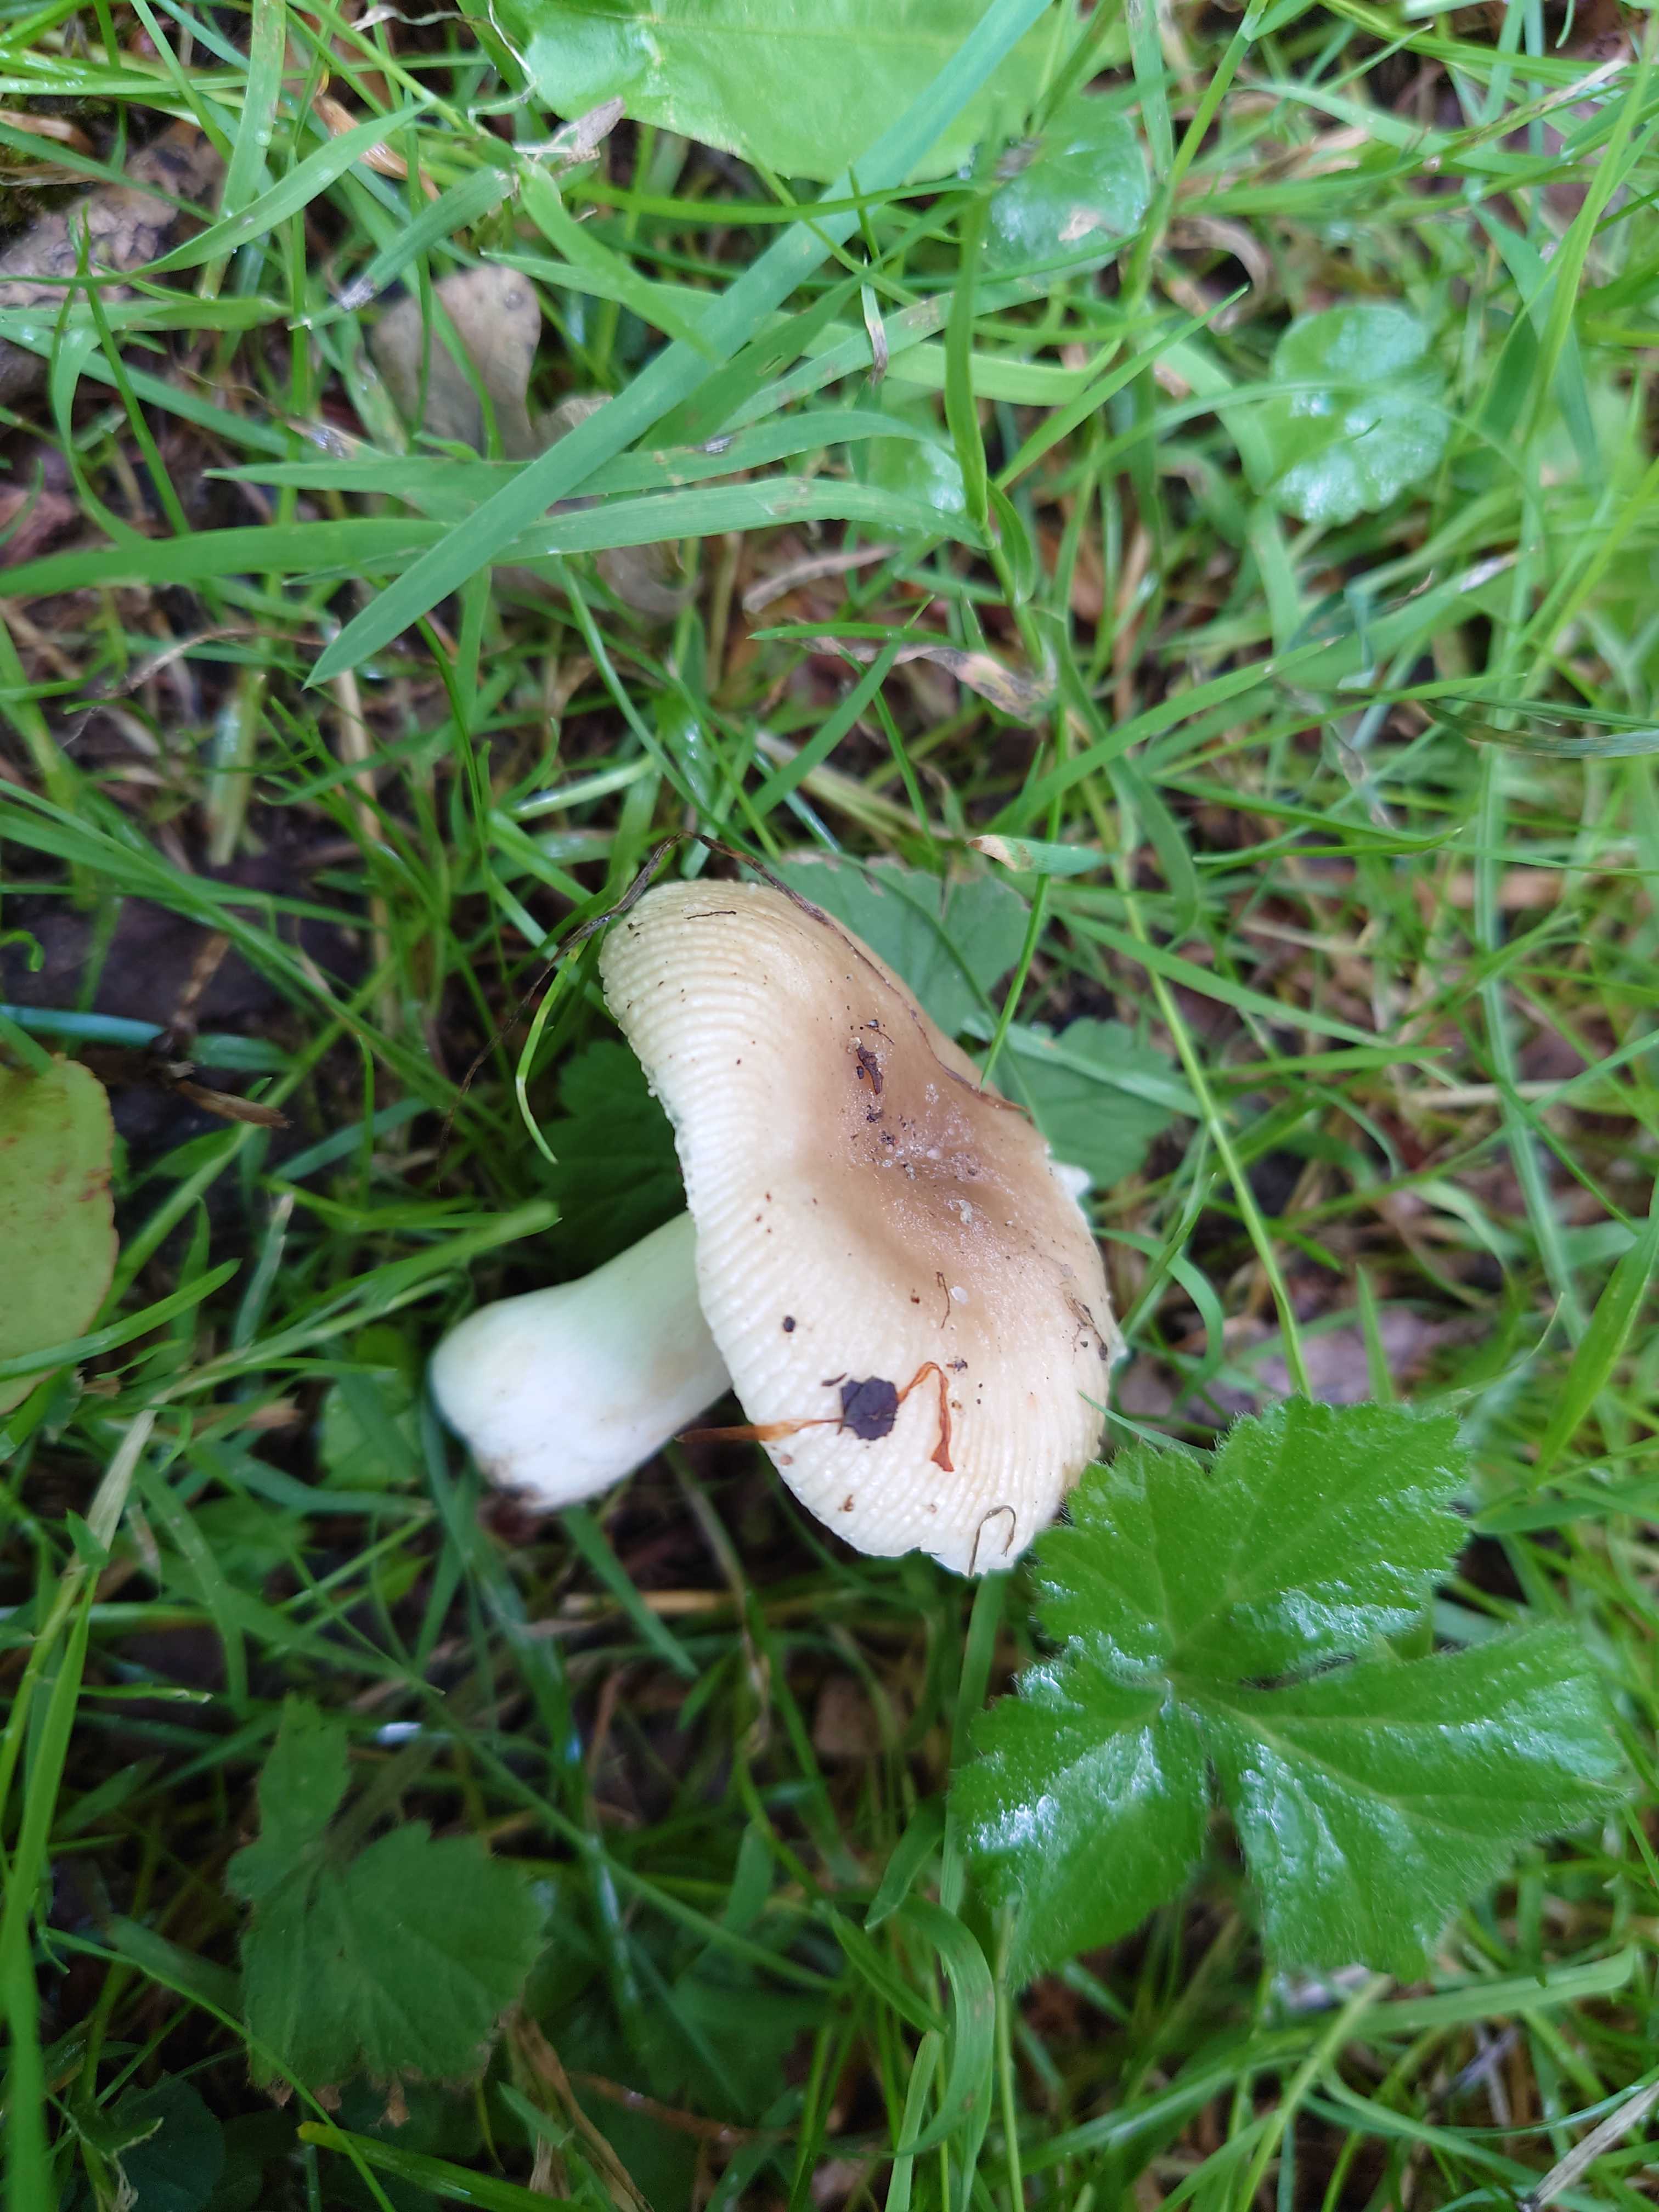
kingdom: Fungi
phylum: Basidiomycota
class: Agaricomycetes
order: Russulales
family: Russulaceae
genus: Russula
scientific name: Russula recondita
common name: mild kam-skørhat
